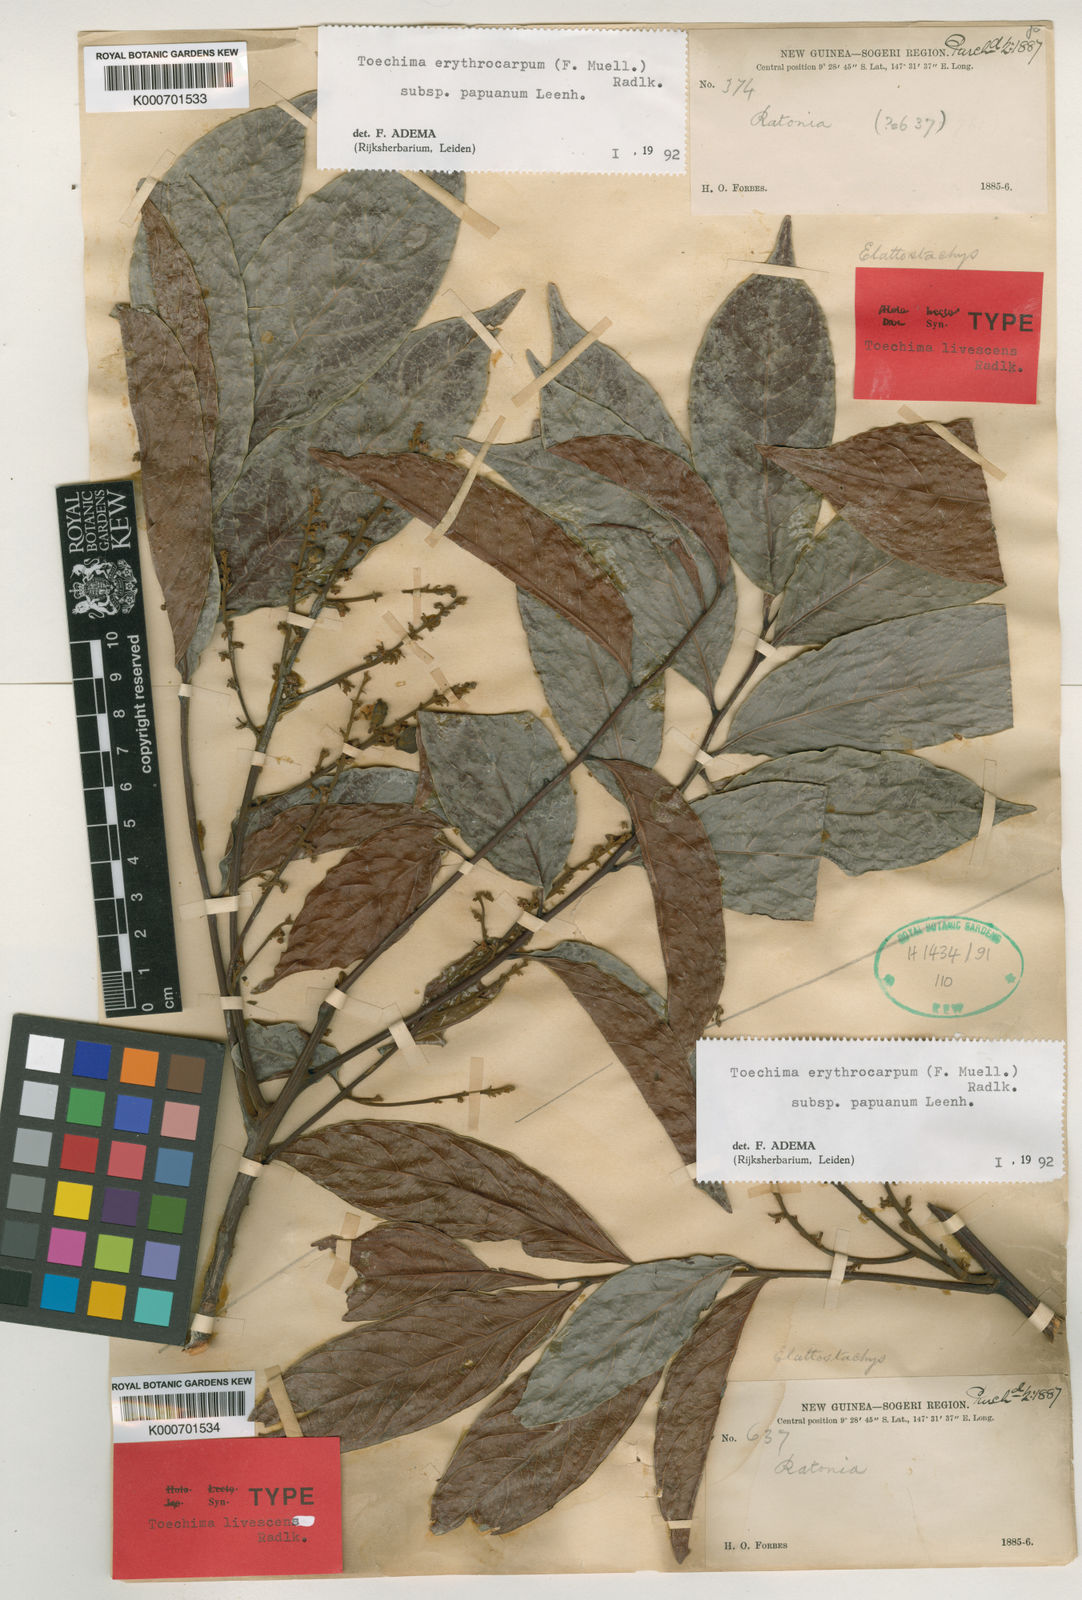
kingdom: Plantae
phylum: Tracheophyta
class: Magnoliopsida
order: Sapindales
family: Sapindaceae
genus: Toechima
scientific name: Toechima erythrocarpum
